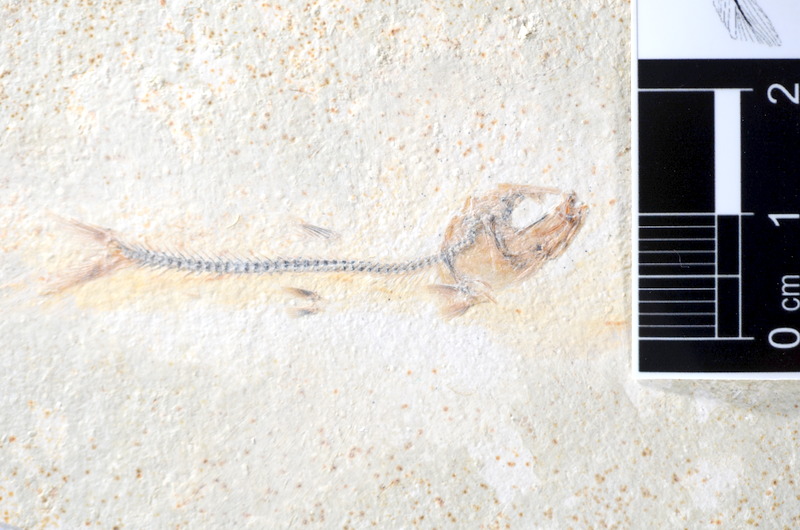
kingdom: Animalia
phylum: Chordata
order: Salmoniformes
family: Orthogonikleithridae
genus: Orthogonikleithrus
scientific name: Orthogonikleithrus hoelli
